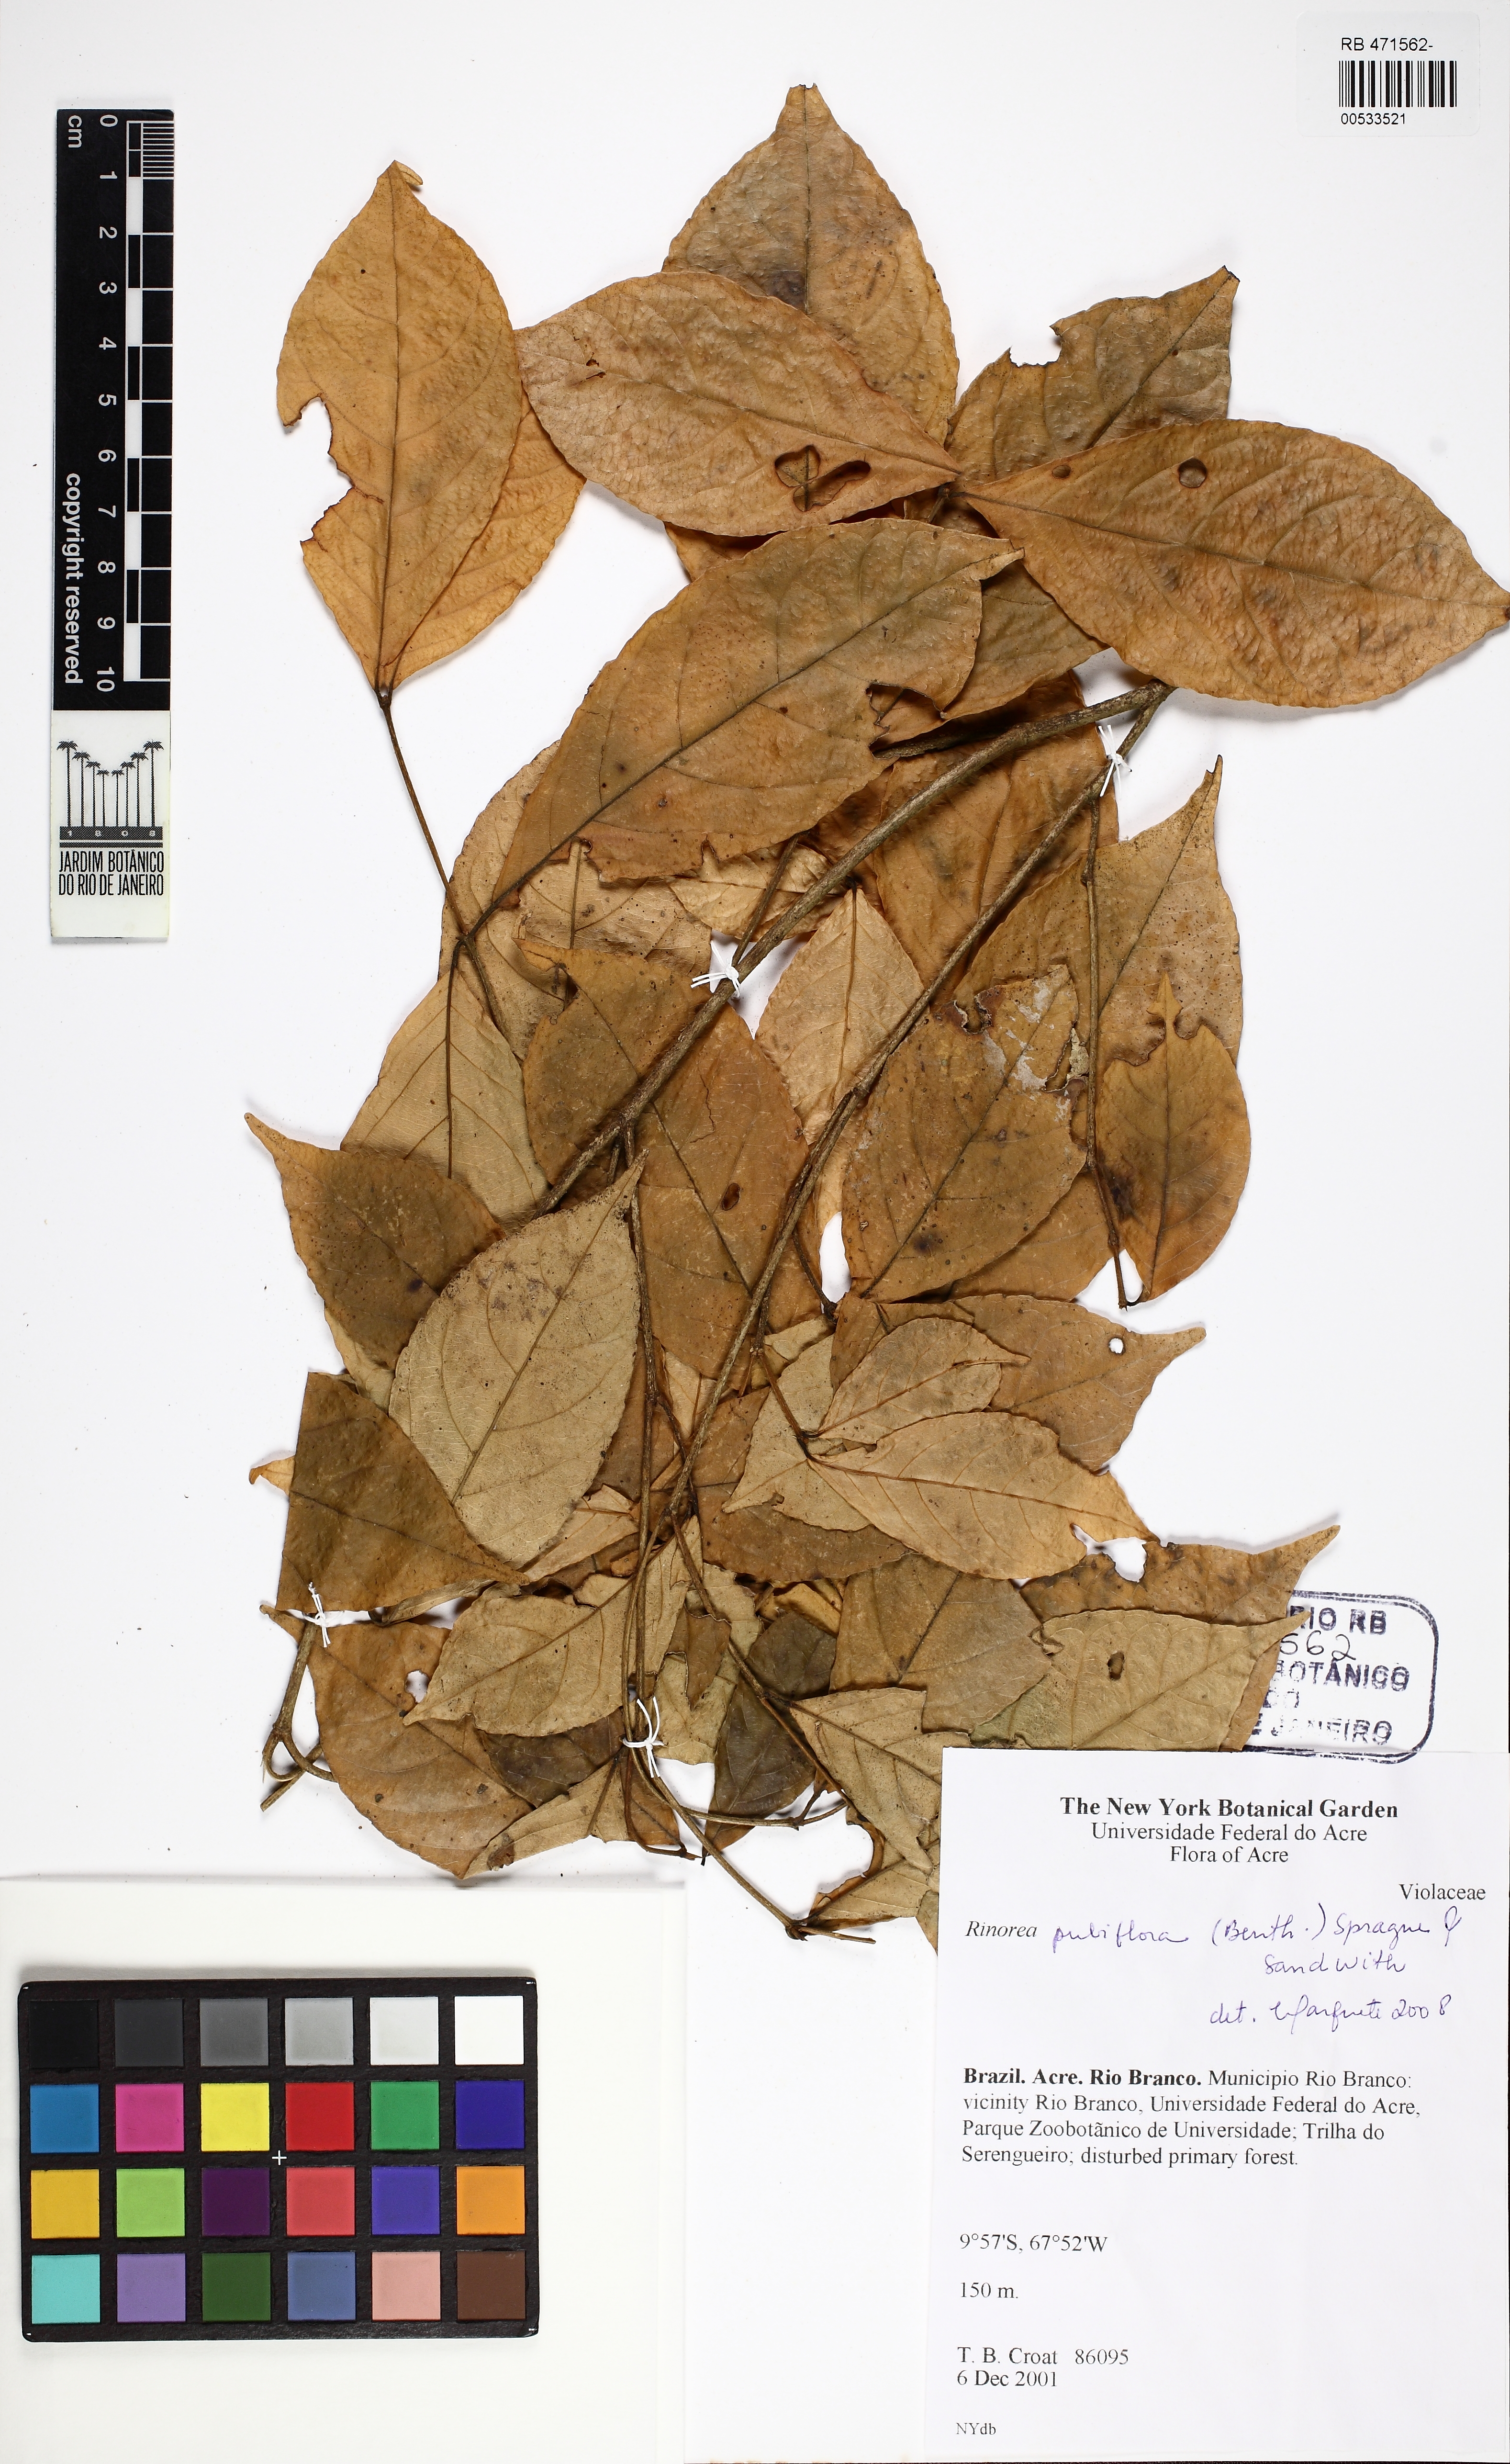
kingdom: Plantae
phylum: Tracheophyta
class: Magnoliopsida
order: Malpighiales
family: Violaceae
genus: Rinorea
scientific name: Rinorea pubiflora
